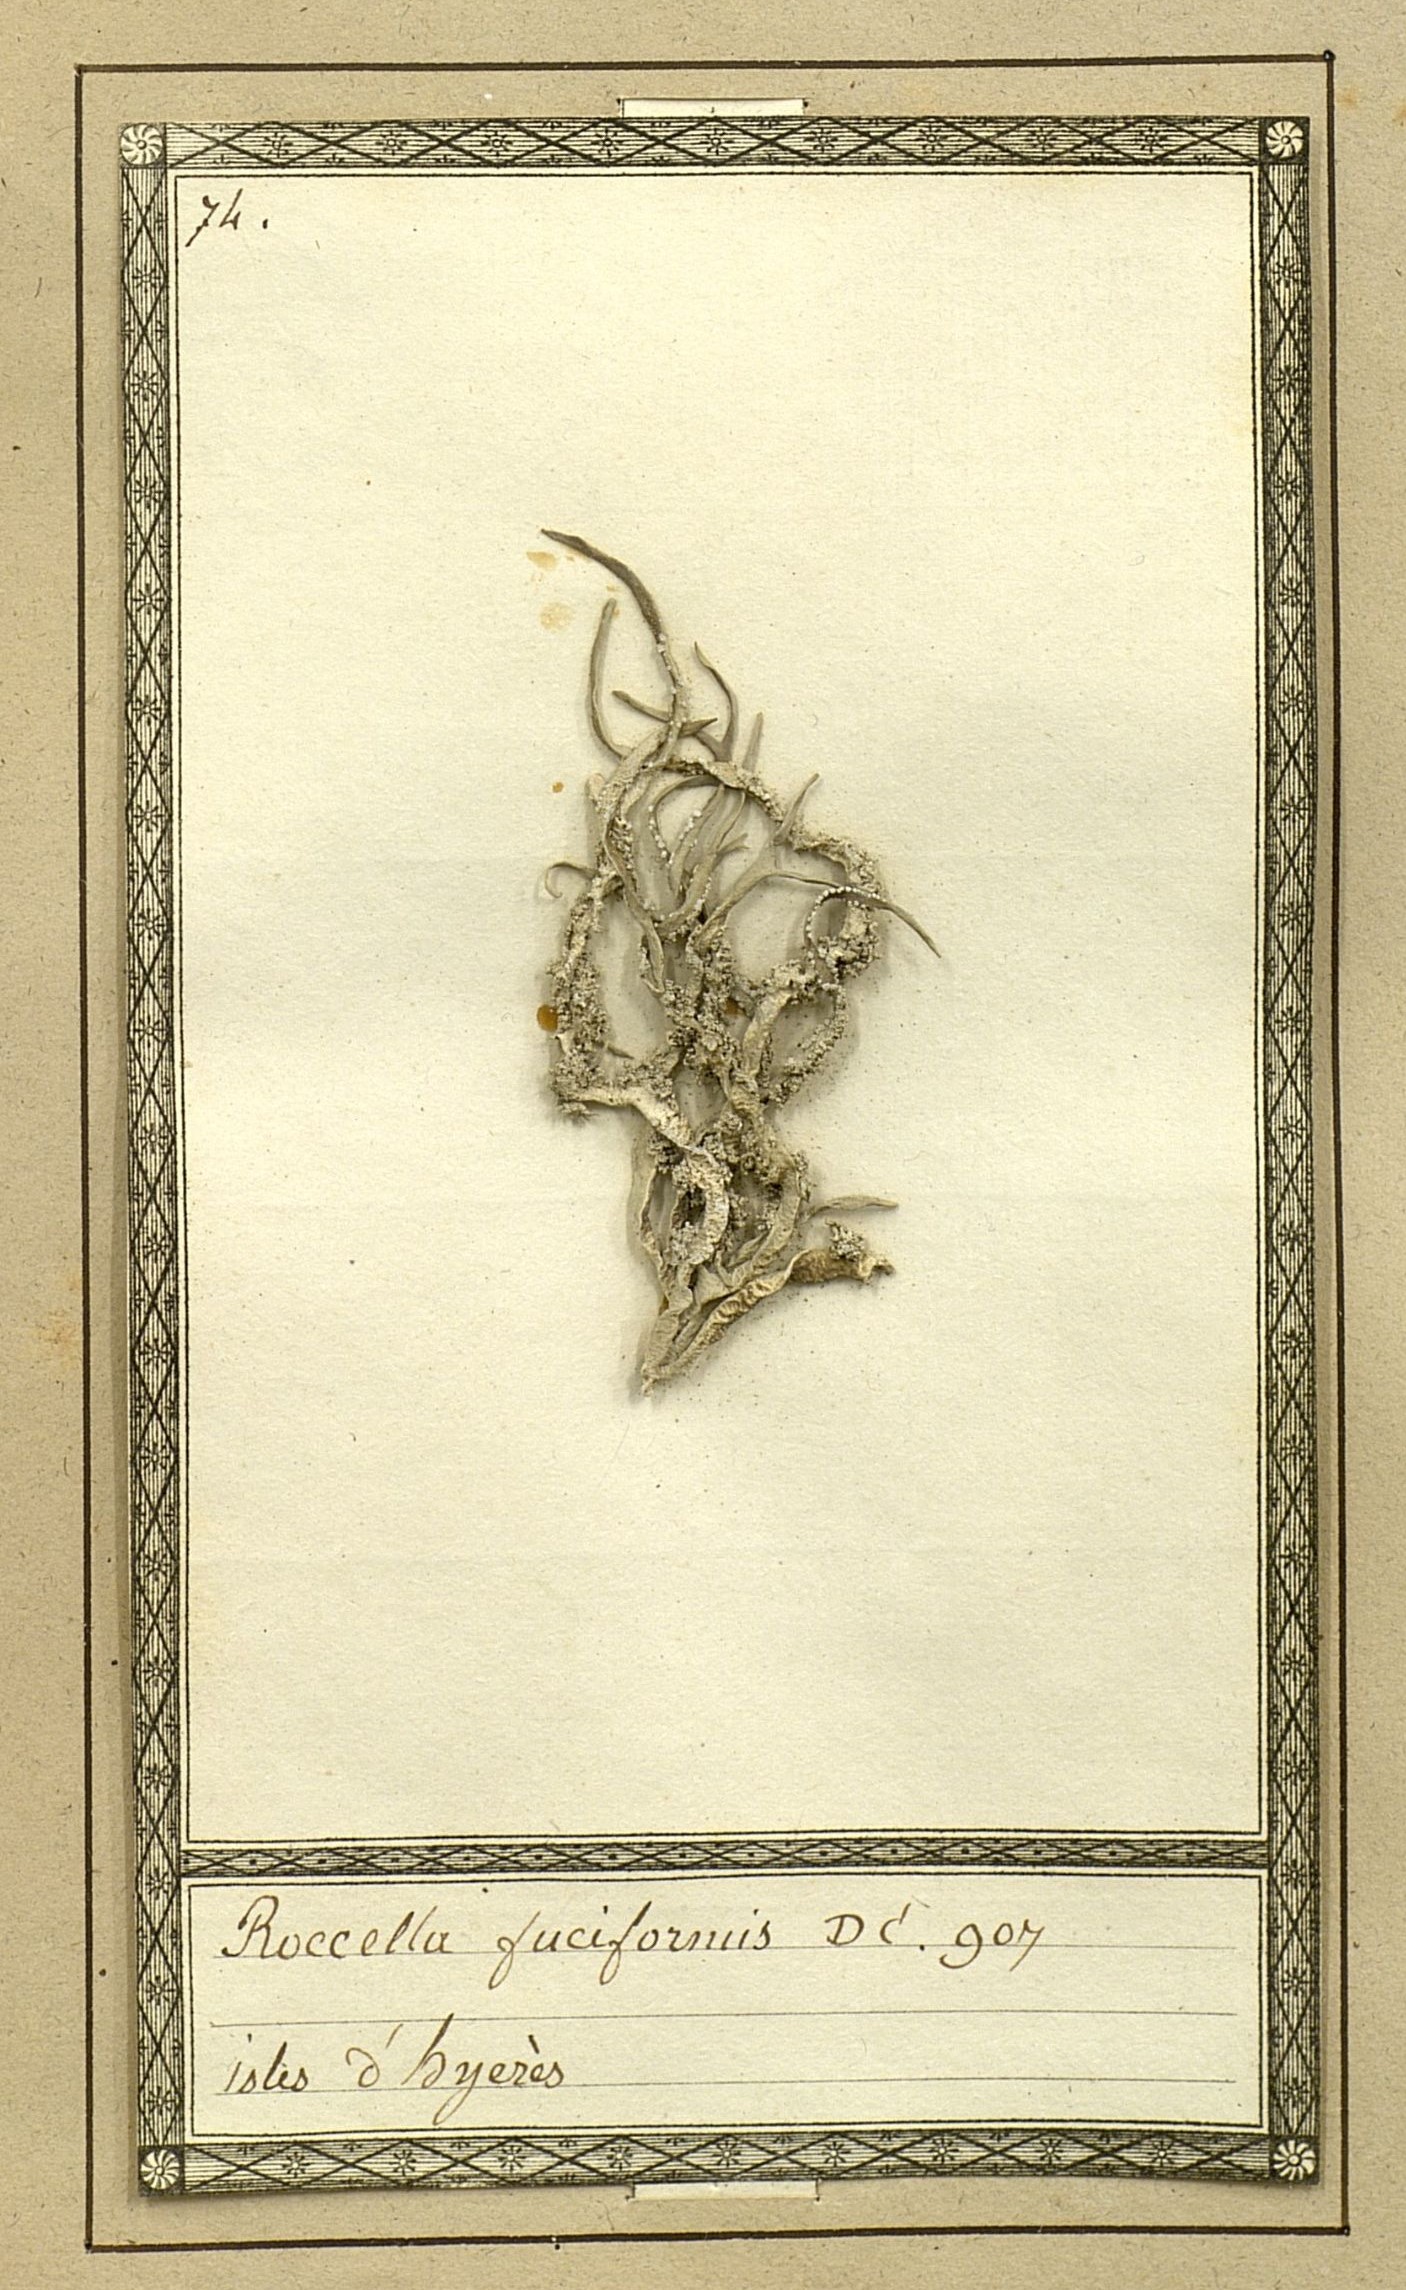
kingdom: Fungi
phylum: Ascomycota
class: Arthoniomycetes
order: Arthoniales
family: Roccellaceae
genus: Roccella
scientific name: Roccella fuciformis
